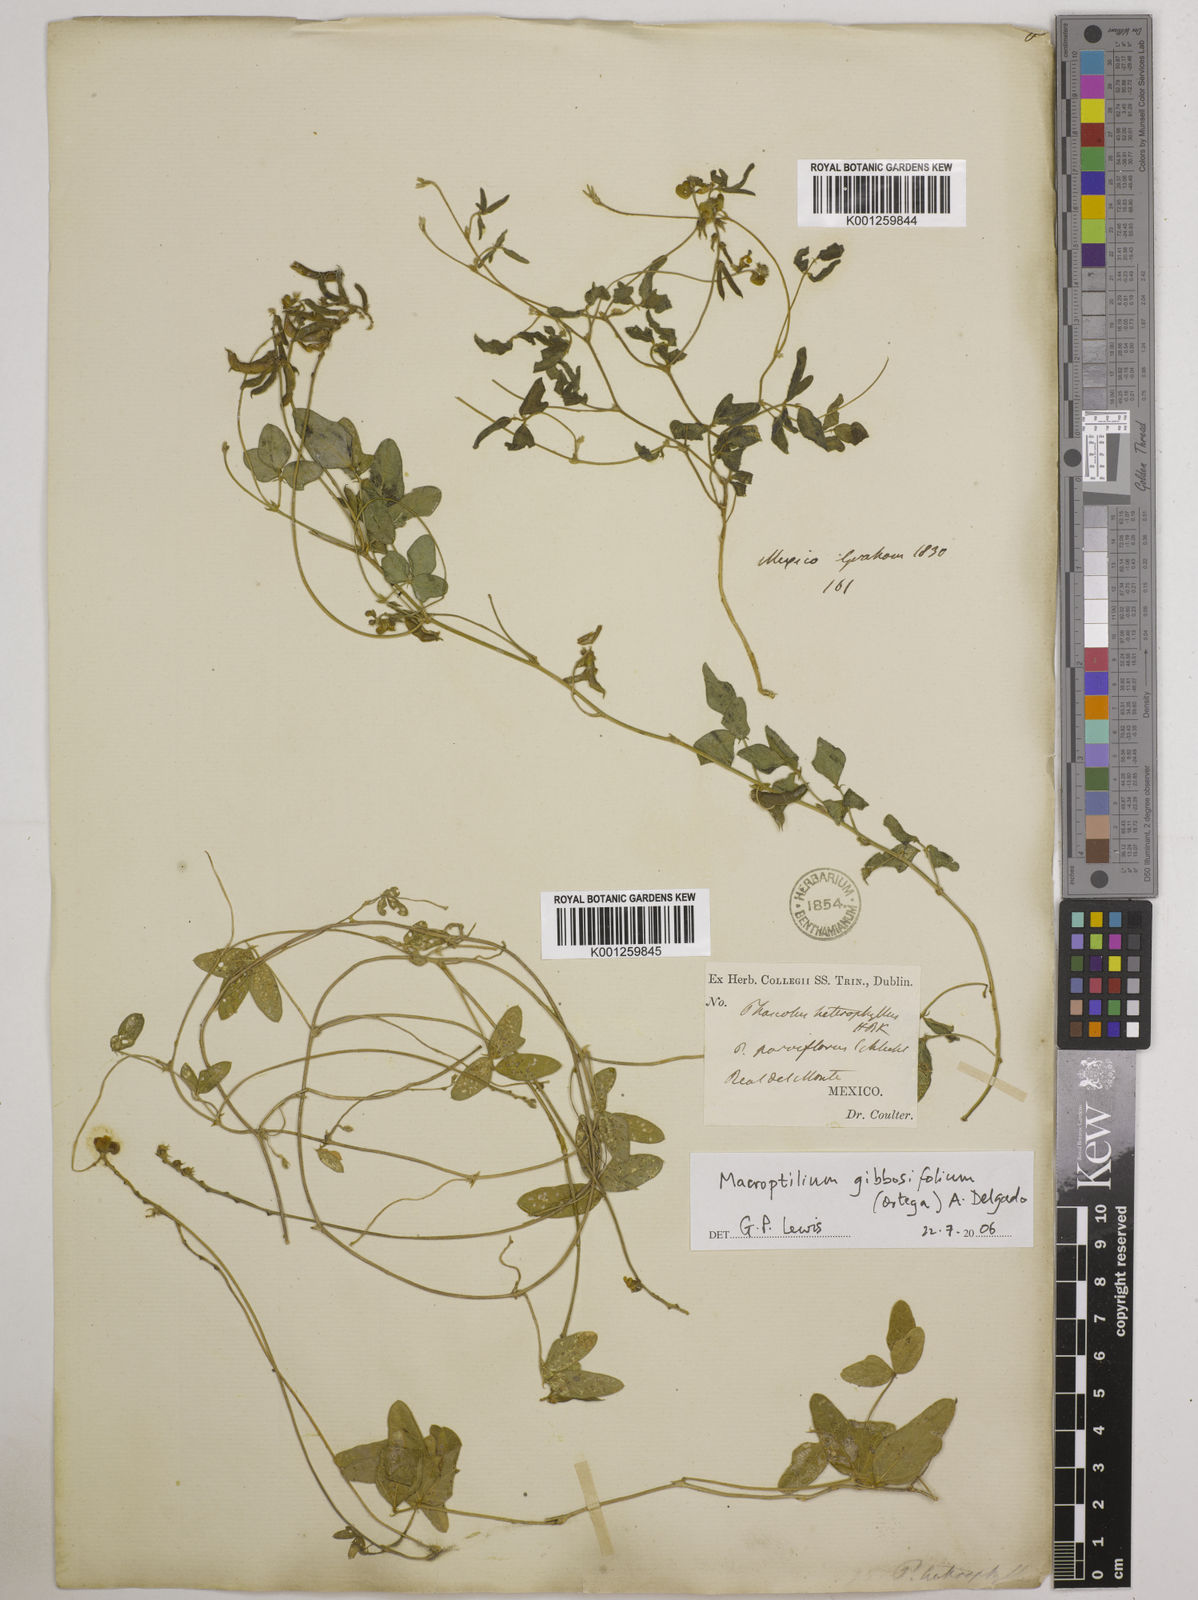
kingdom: Plantae
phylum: Tracheophyta
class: Magnoliopsida
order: Fabales
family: Fabaceae
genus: Macroptilium
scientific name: Macroptilium gibbosifolium
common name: Variableleaf bushbean
